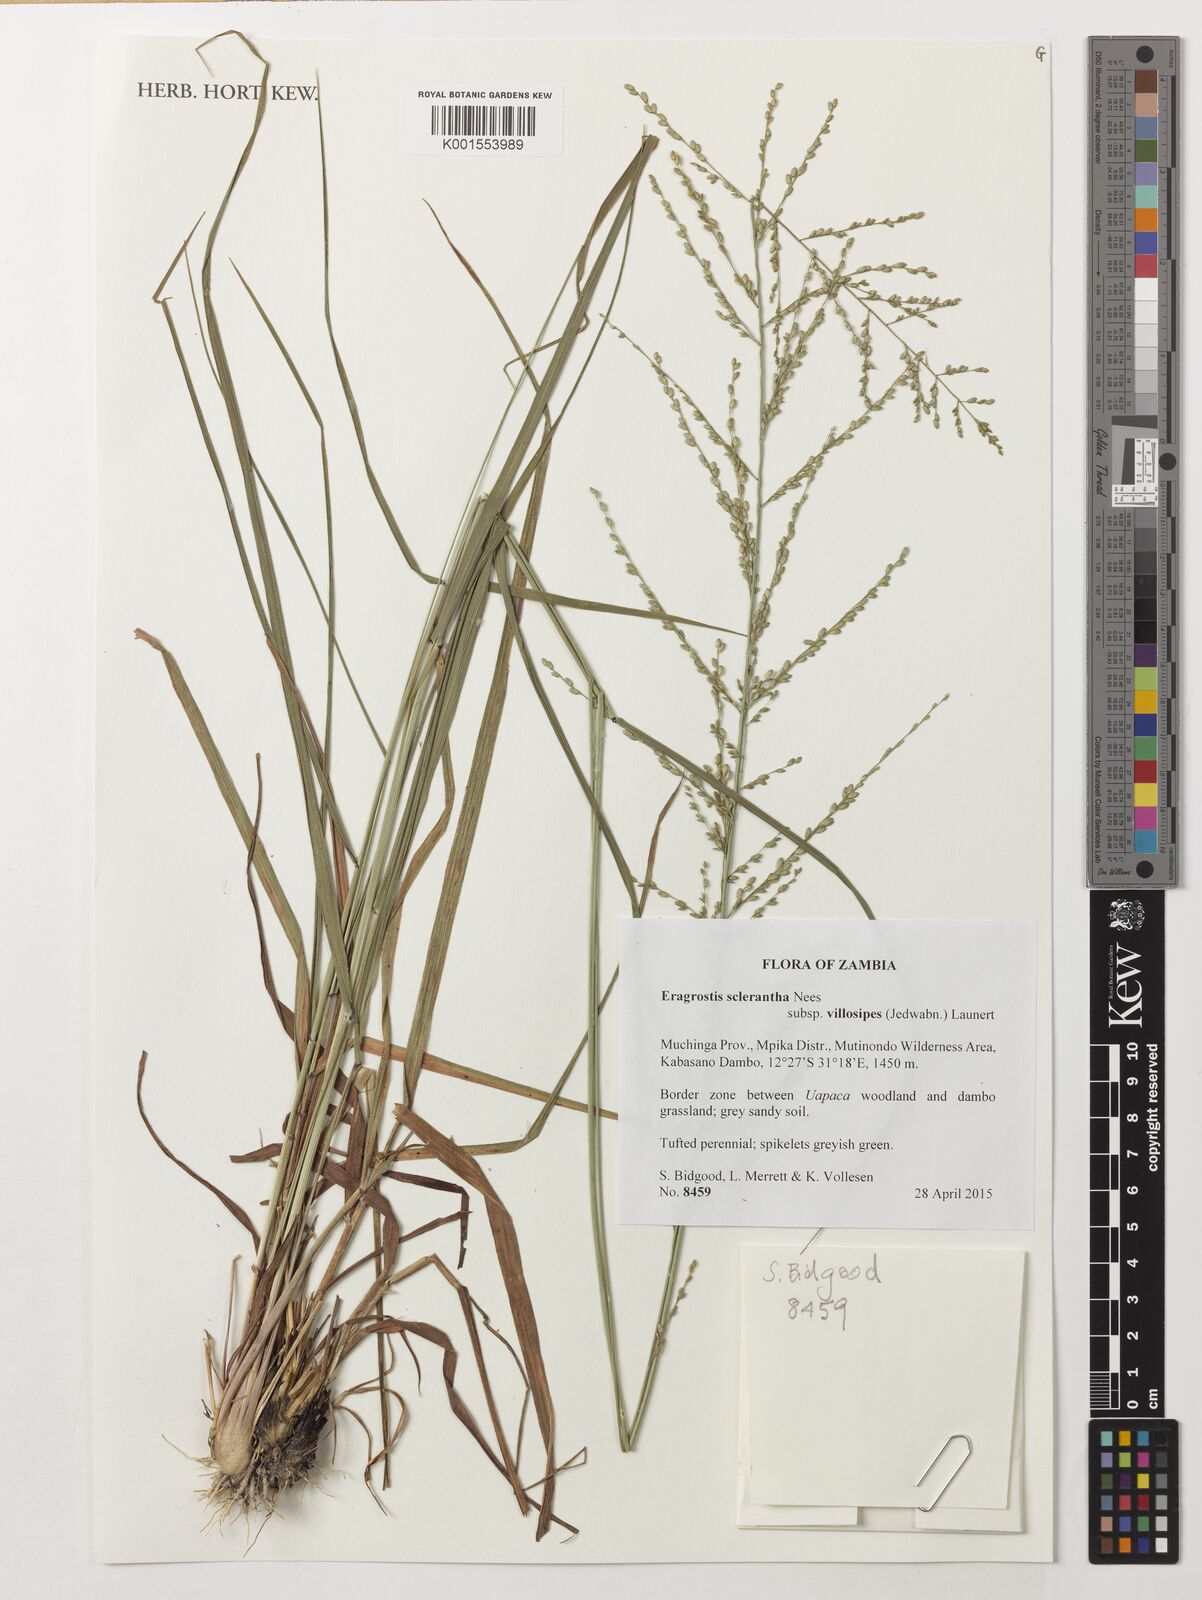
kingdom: Plantae
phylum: Tracheophyta
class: Liliopsida
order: Poales
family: Poaceae
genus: Eragrostis
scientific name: Eragrostis sclerantha
